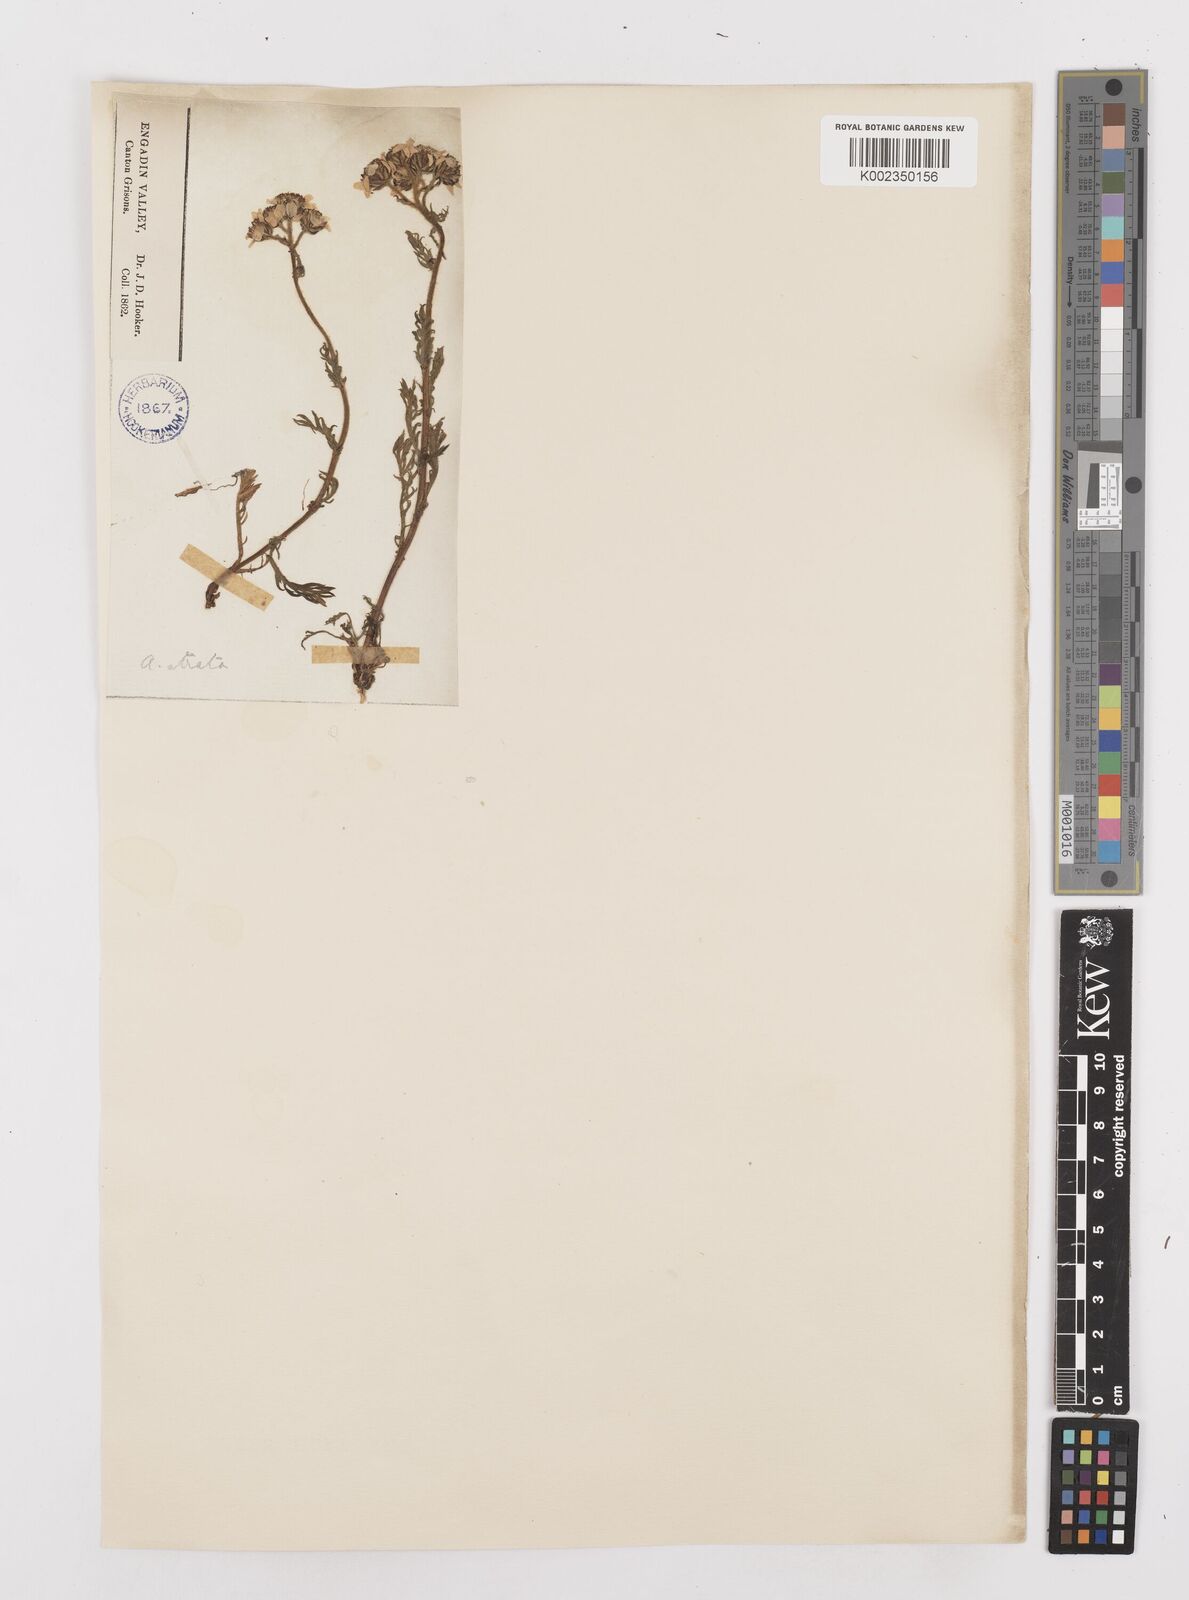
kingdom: Plantae
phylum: Tracheophyta
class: Magnoliopsida
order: Asterales
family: Asteraceae
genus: Achillea
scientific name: Achillea atrata
